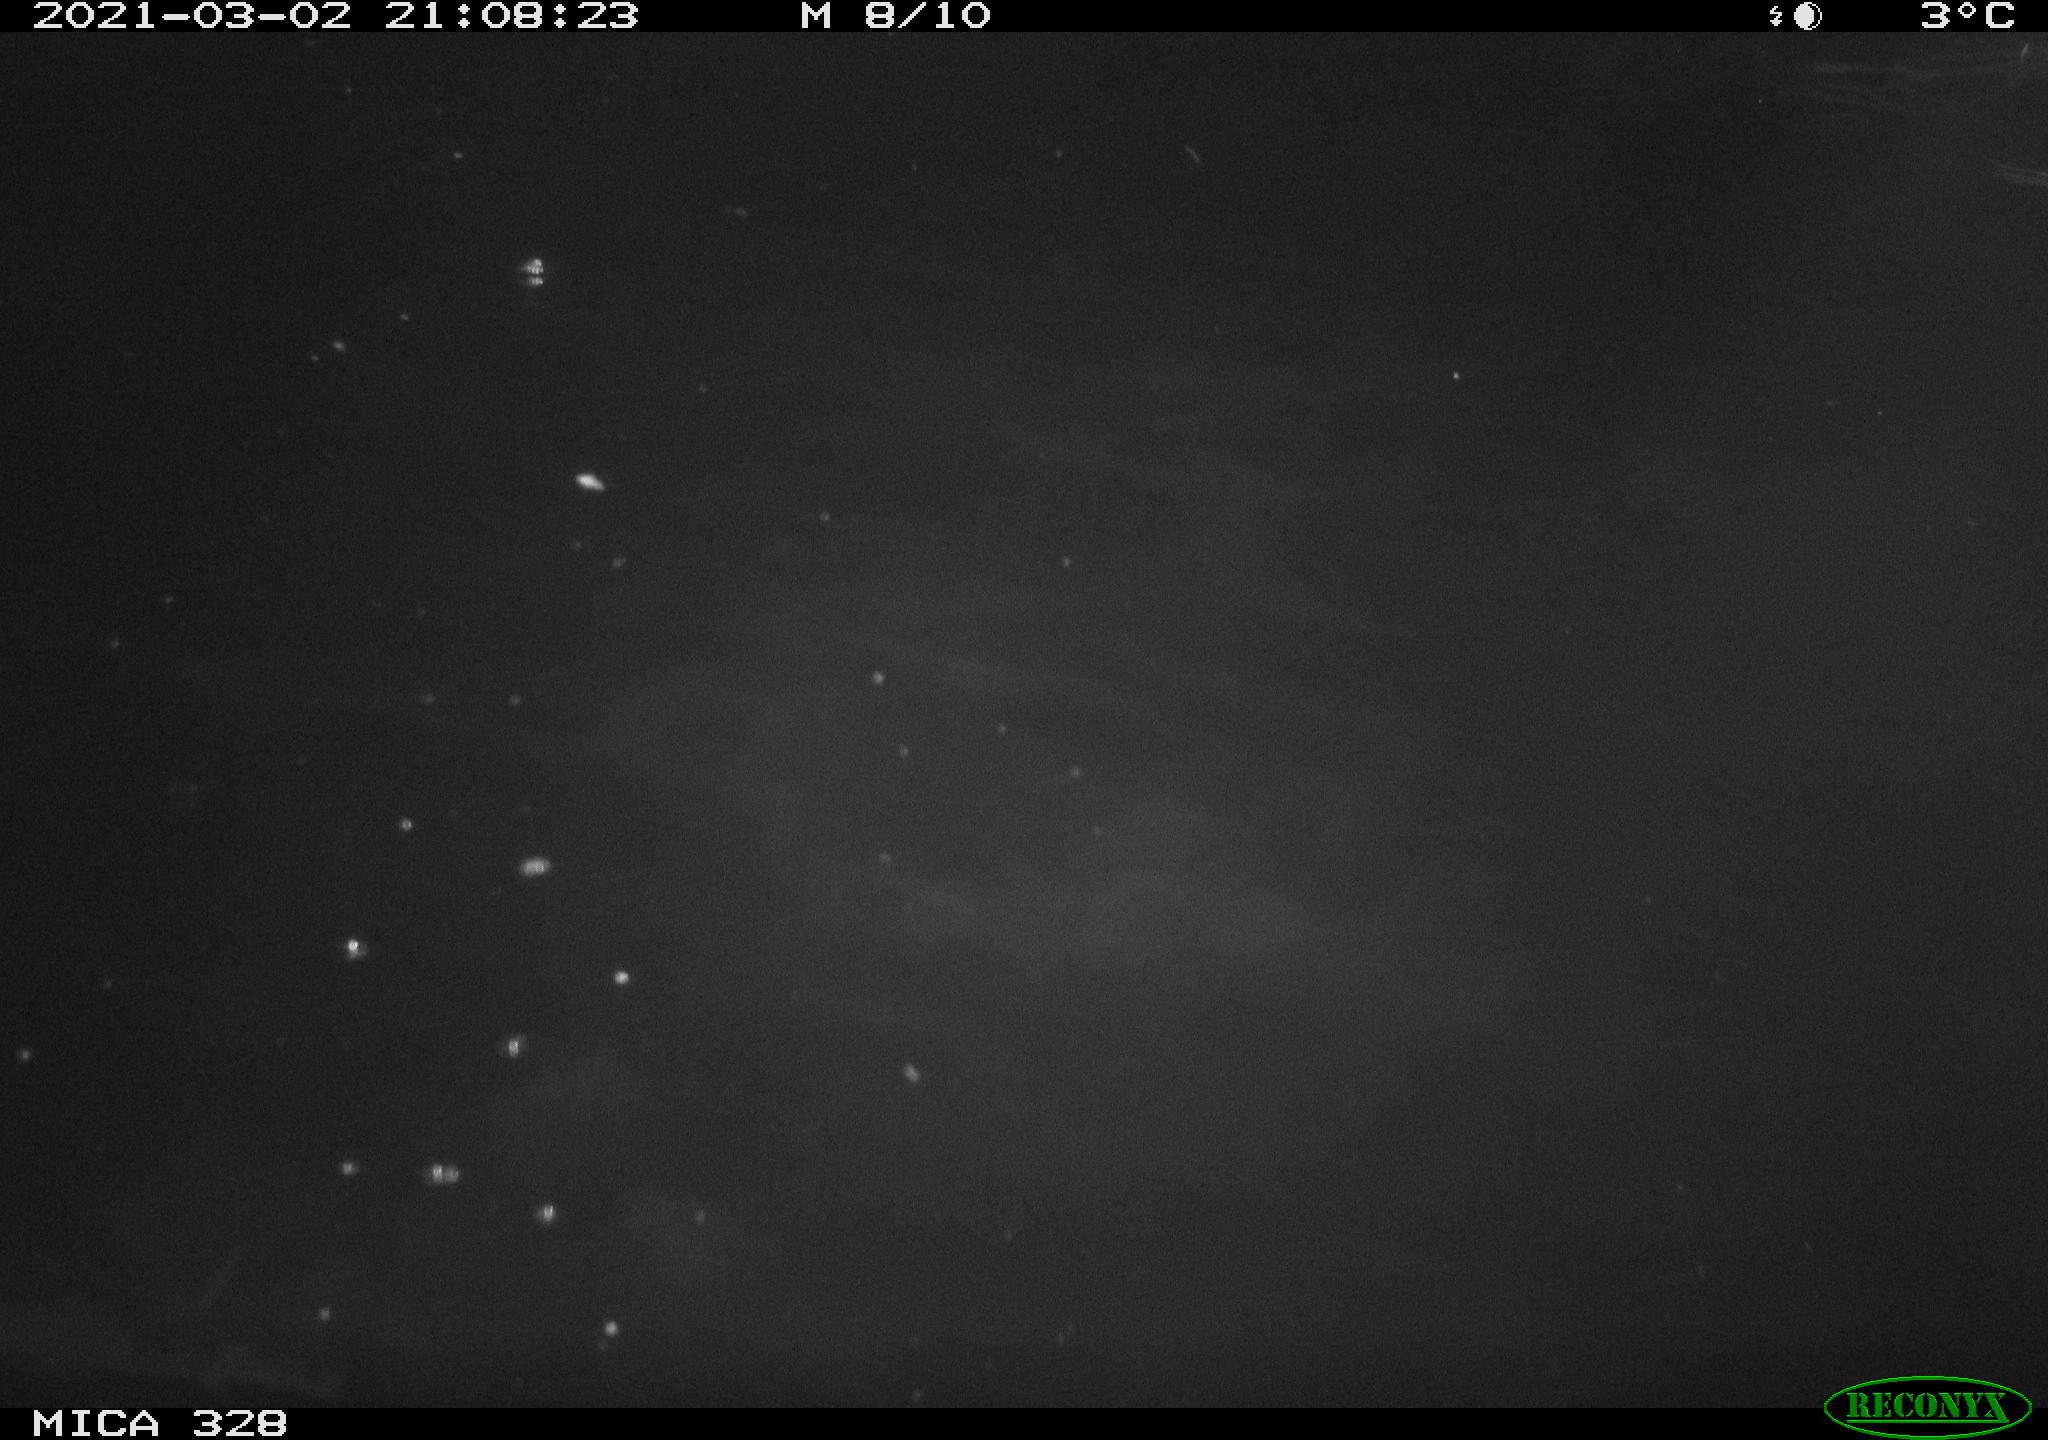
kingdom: Animalia
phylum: Chordata
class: Mammalia
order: Rodentia
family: Cricetidae
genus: Ondatra
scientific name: Ondatra zibethicus
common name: Muskrat
